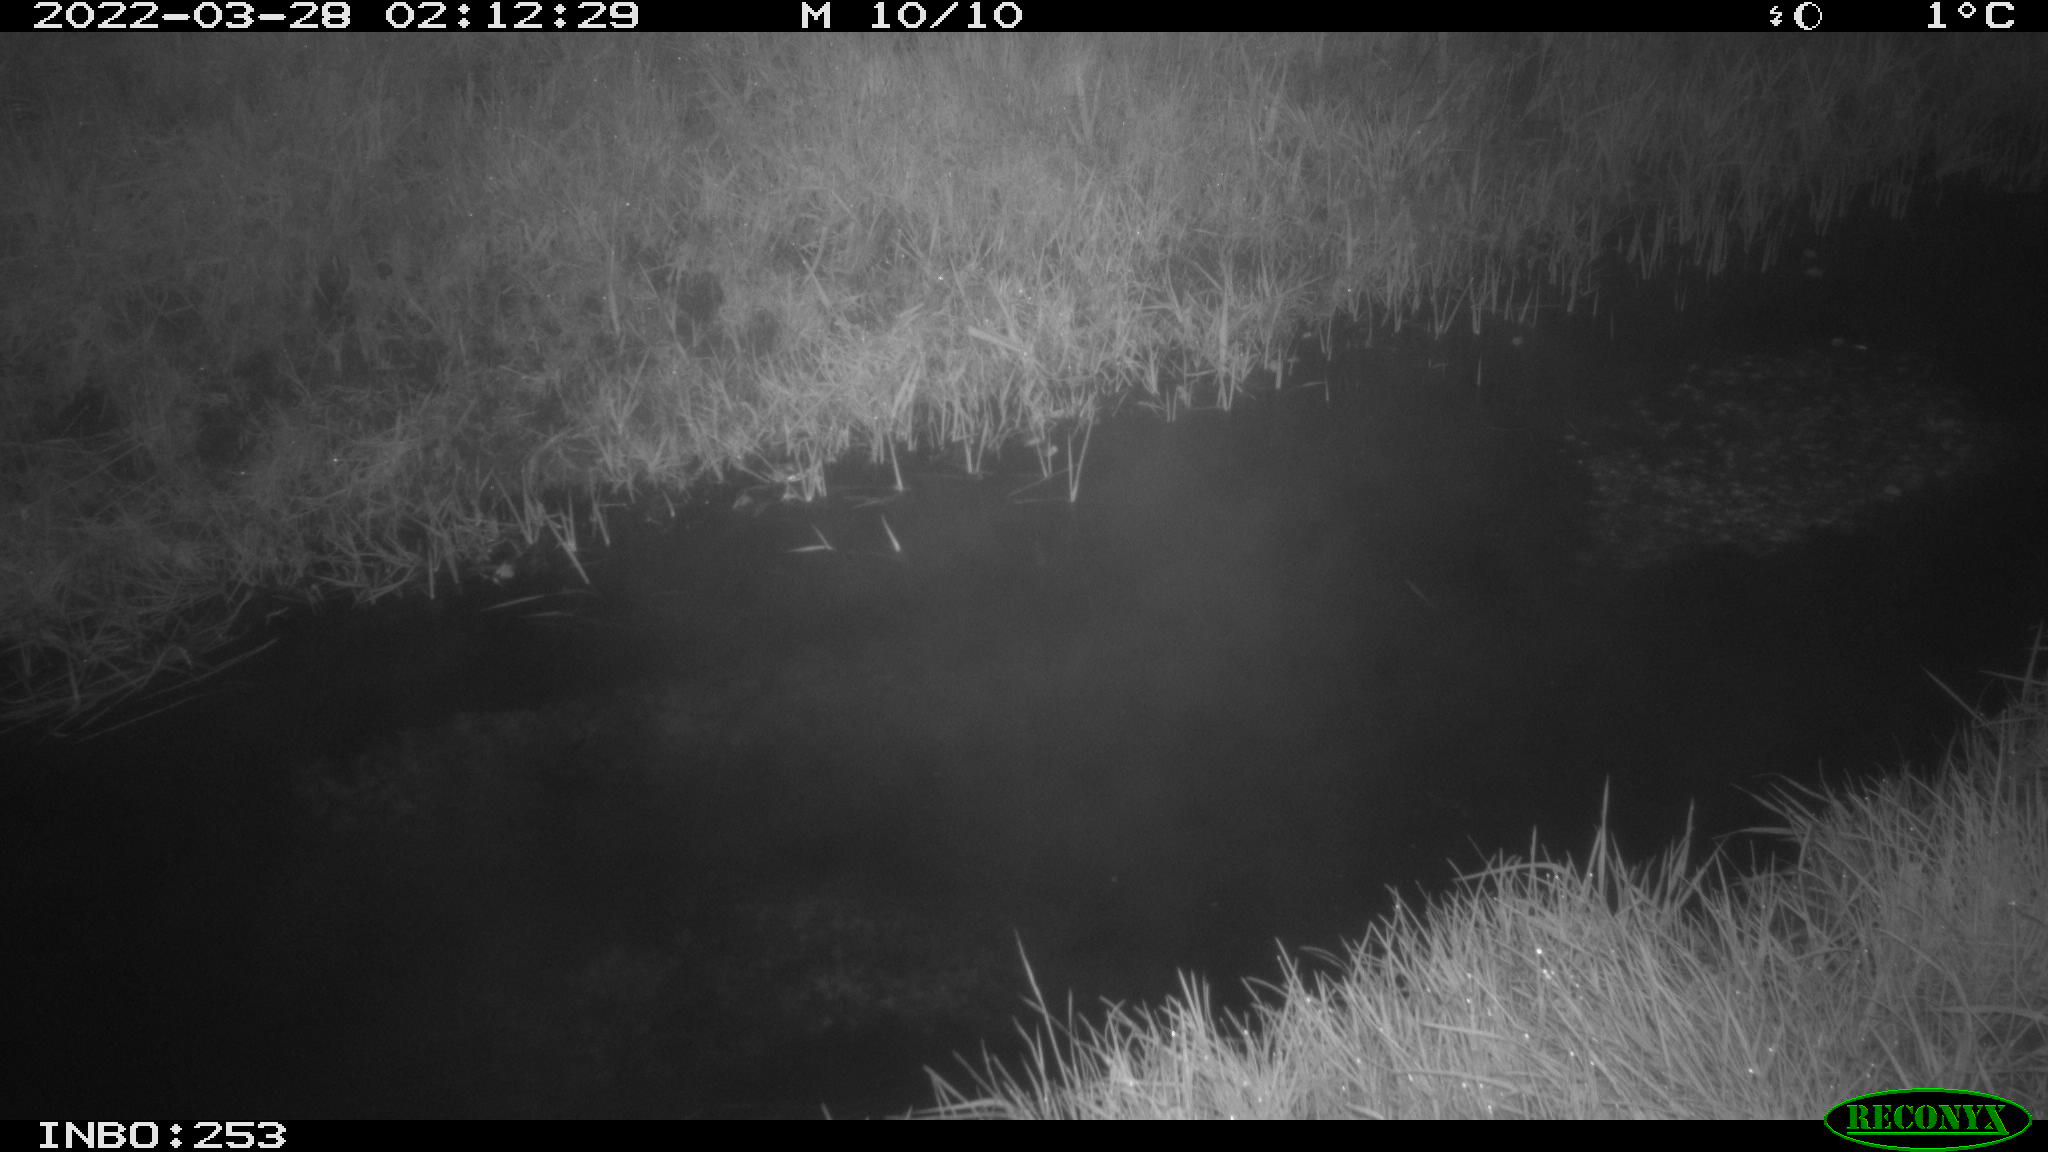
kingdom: Animalia
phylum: Chordata
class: Aves
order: Anseriformes
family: Anatidae
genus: Anas
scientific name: Anas platyrhynchos
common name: Mallard
